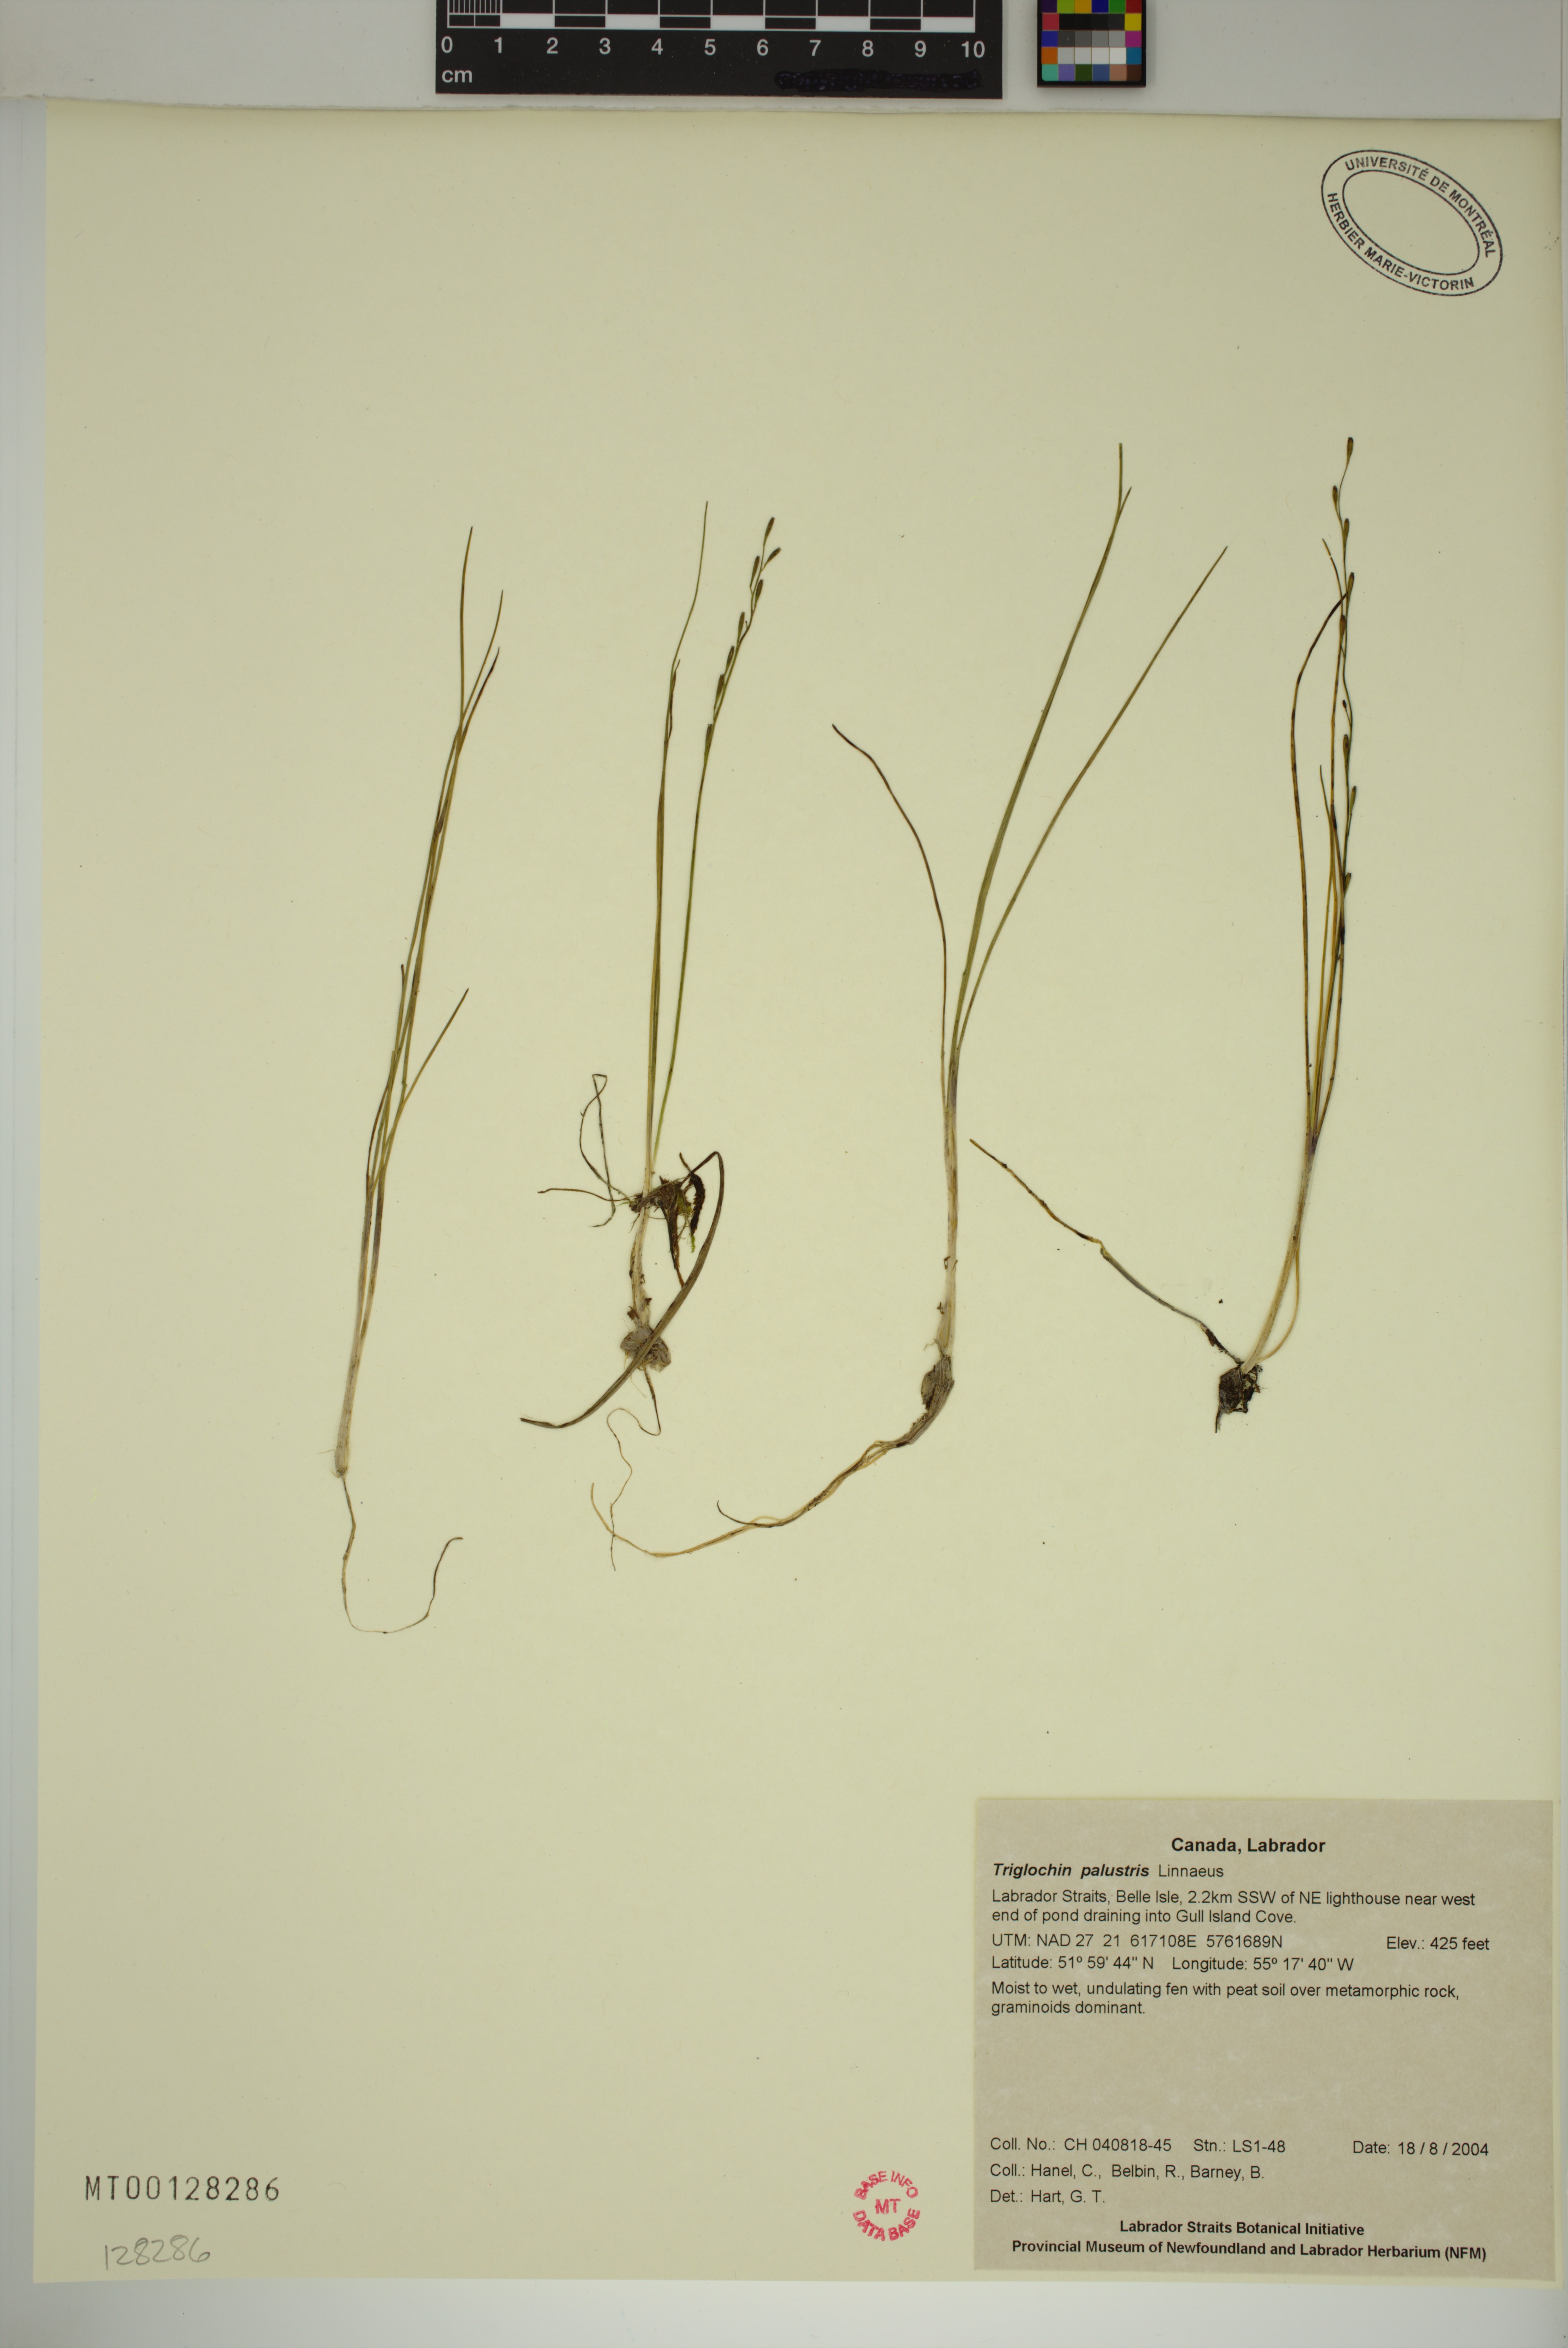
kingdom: Plantae
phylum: Tracheophyta
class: Liliopsida
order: Alismatales
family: Juncaginaceae
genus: Triglochin
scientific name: Triglochin palustris
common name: Marsh arrowgrass
